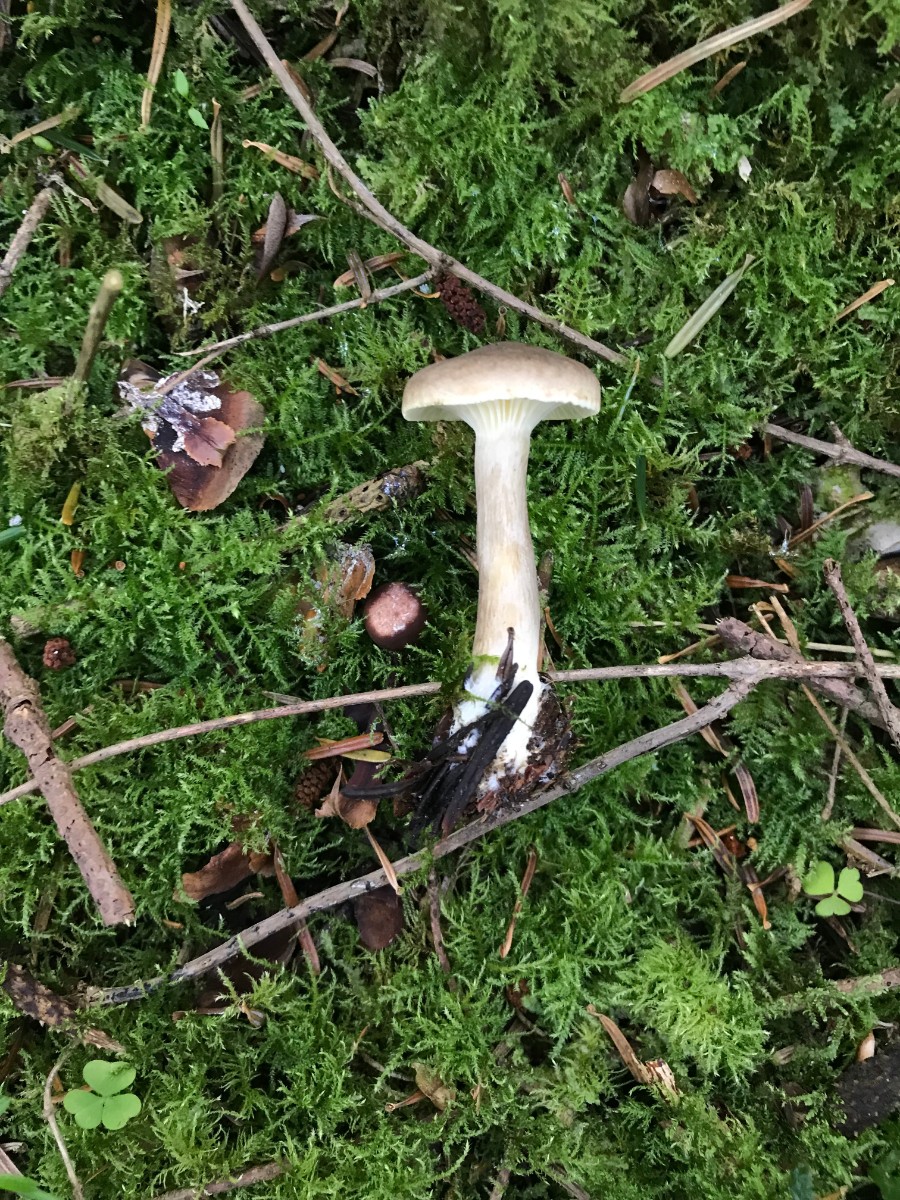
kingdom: Fungi
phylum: Basidiomycota
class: Agaricomycetes
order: Agaricales
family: Hygrophoraceae
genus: Ampulloclitocybe
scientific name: Ampulloclitocybe clavipes
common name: køllefod
